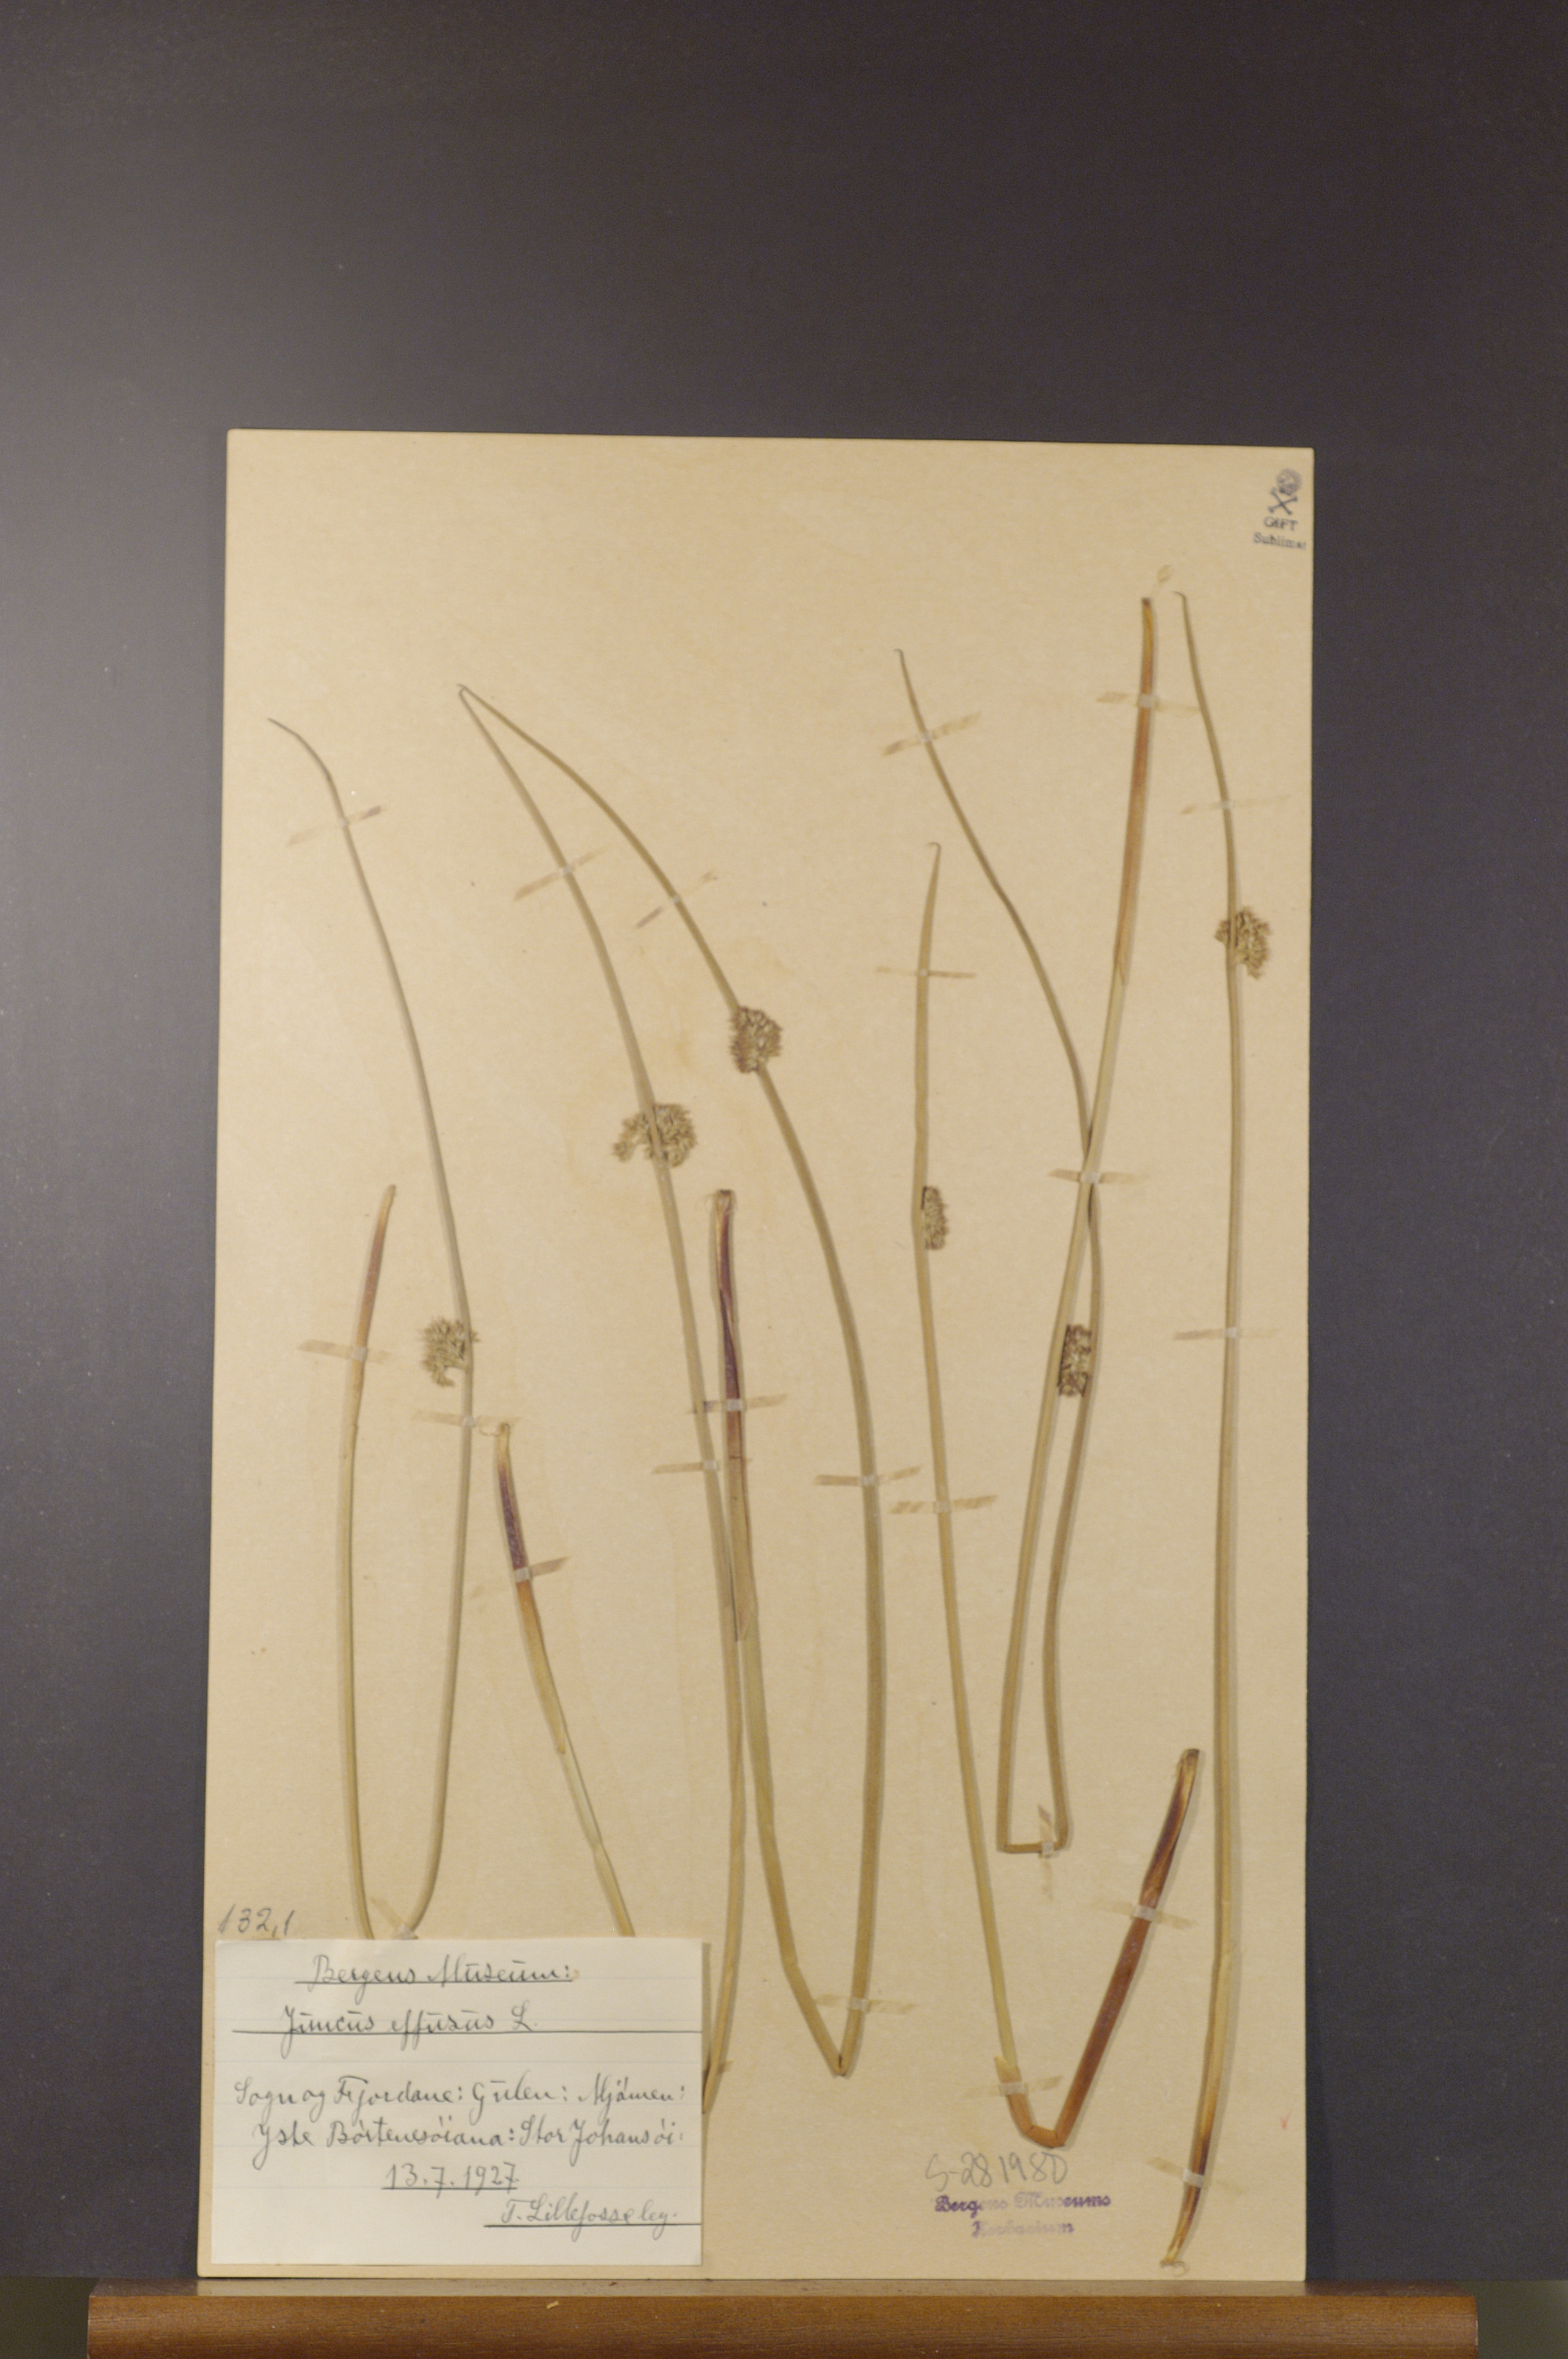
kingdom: Plantae
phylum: Tracheophyta
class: Liliopsida
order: Poales
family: Juncaceae
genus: Juncus
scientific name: Juncus effusus
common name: Soft rush
